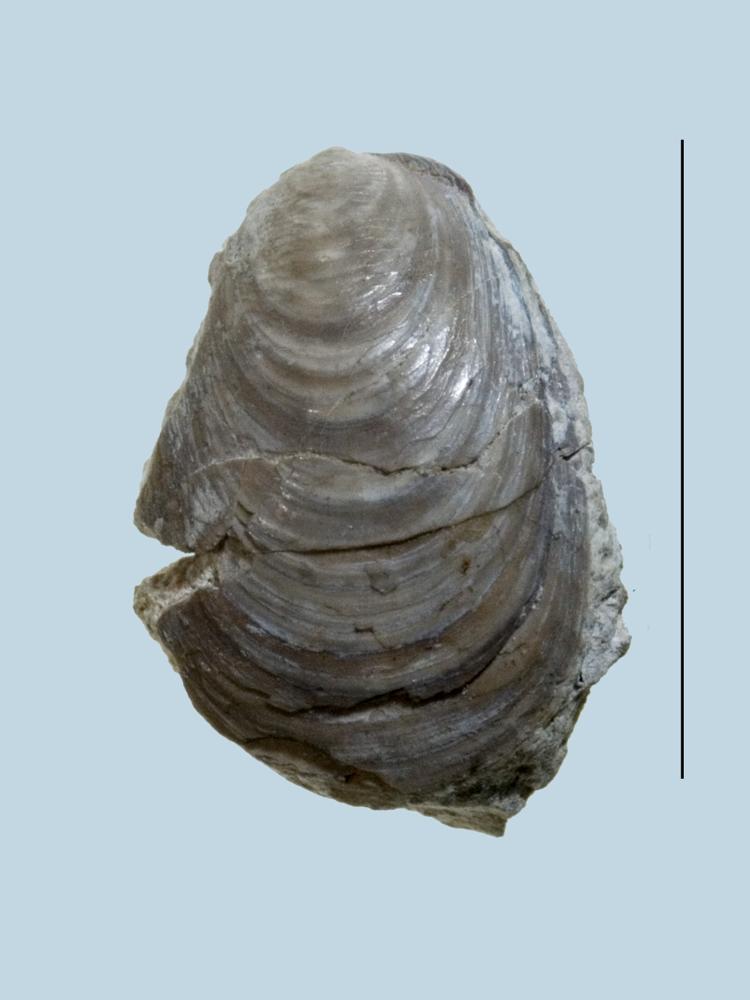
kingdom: Animalia
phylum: Brachiopoda
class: Lingulata
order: Lingulida
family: Lingulidae
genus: Lingula
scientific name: Lingula
